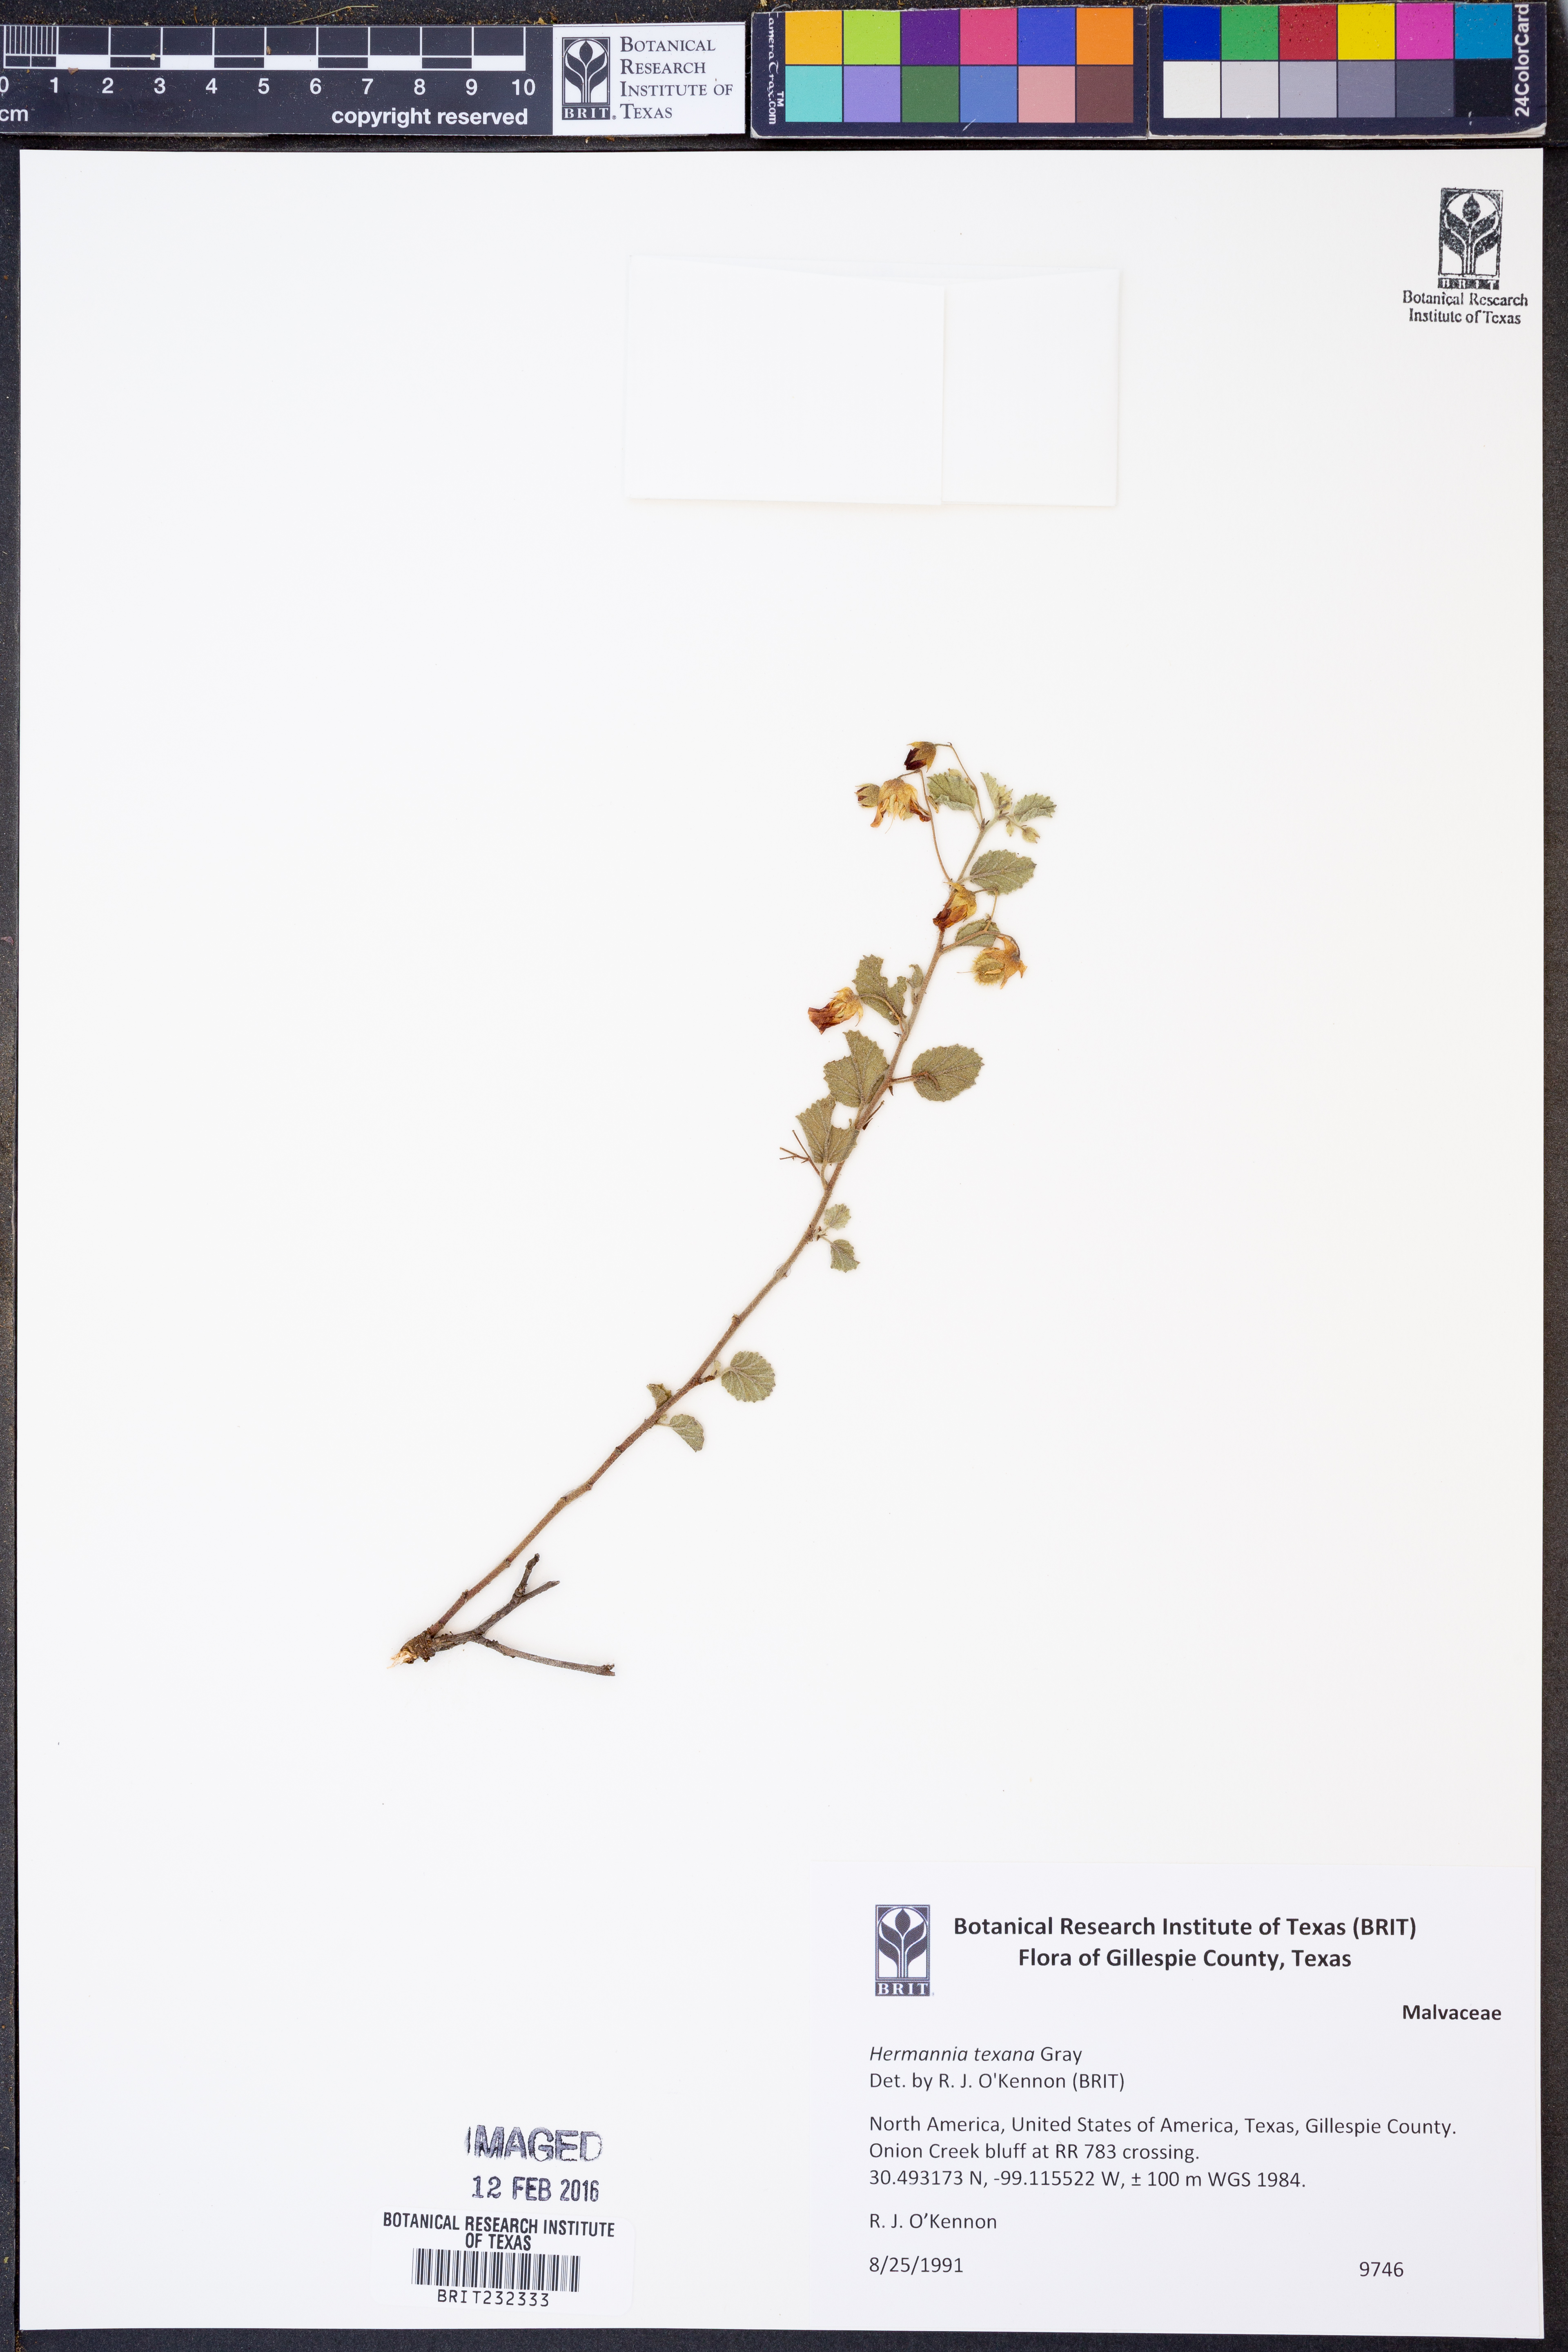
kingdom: Plantae
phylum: Tracheophyta
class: Magnoliopsida
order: Malvales
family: Malvaceae
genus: Hermannia
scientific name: Hermannia texana
